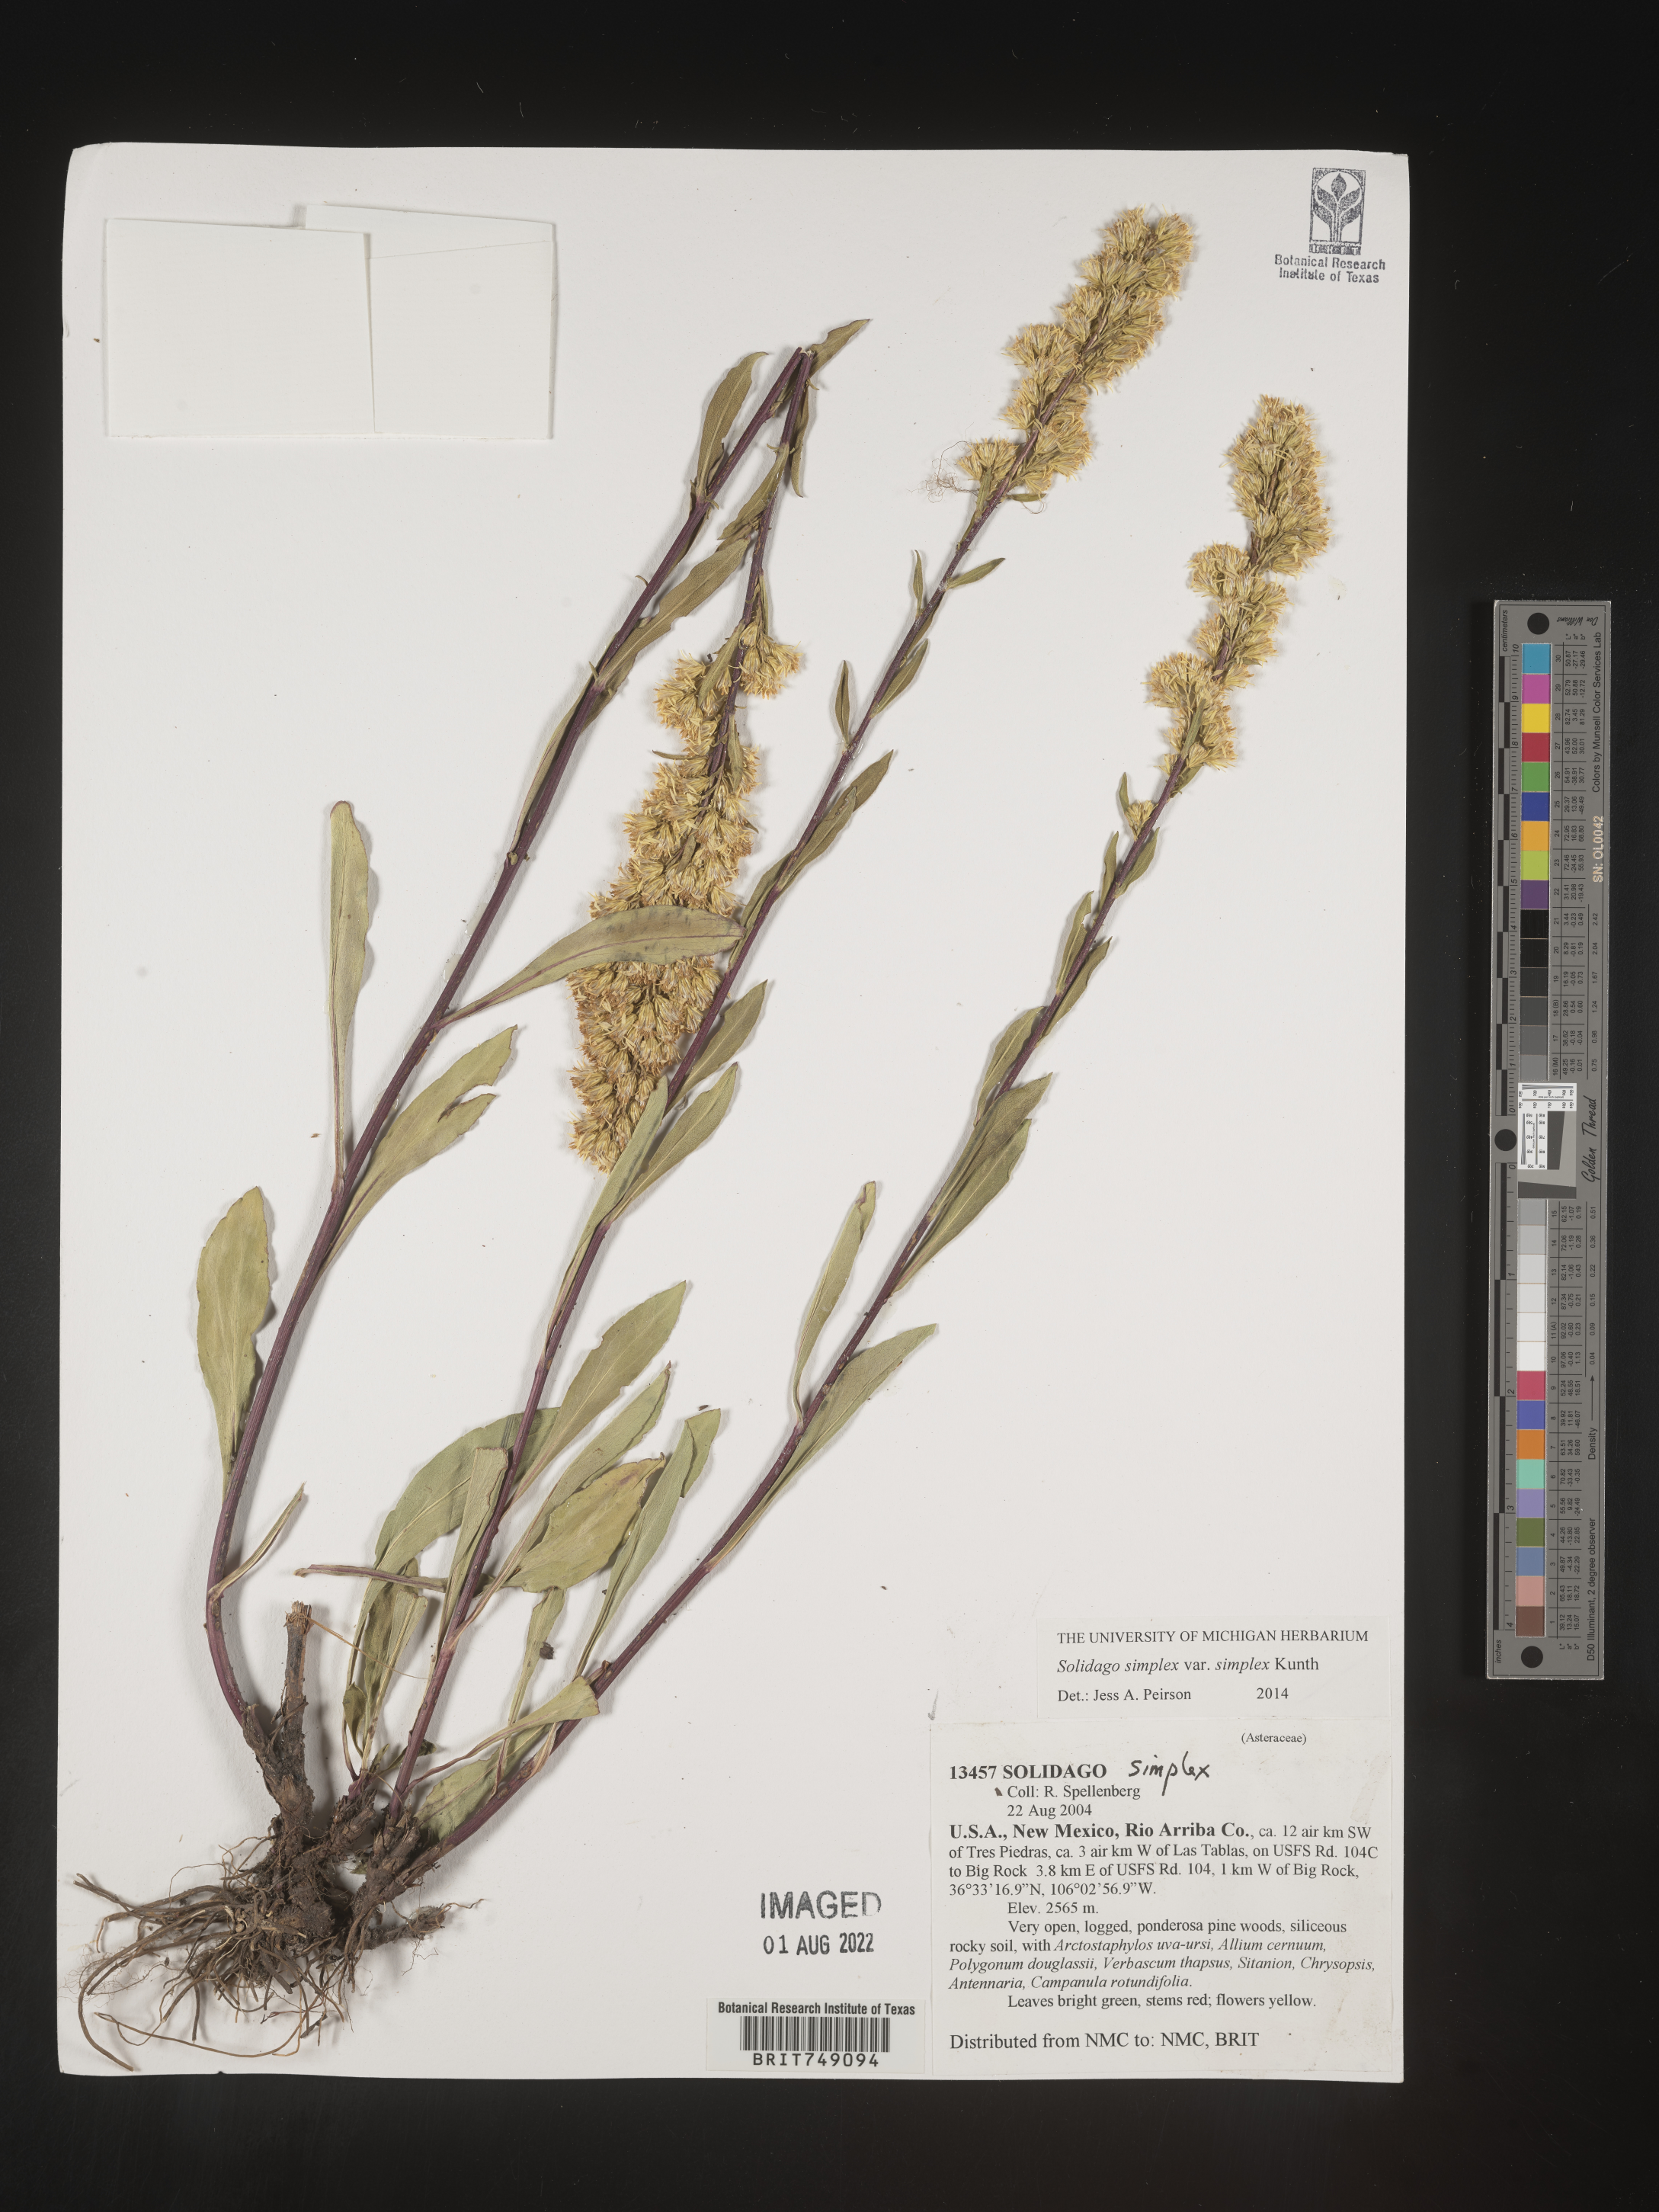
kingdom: Plantae
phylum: Tracheophyta
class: Magnoliopsida
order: Asterales
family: Asteraceae
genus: Solidago
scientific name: Solidago simplex
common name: Sticky goldenrod
